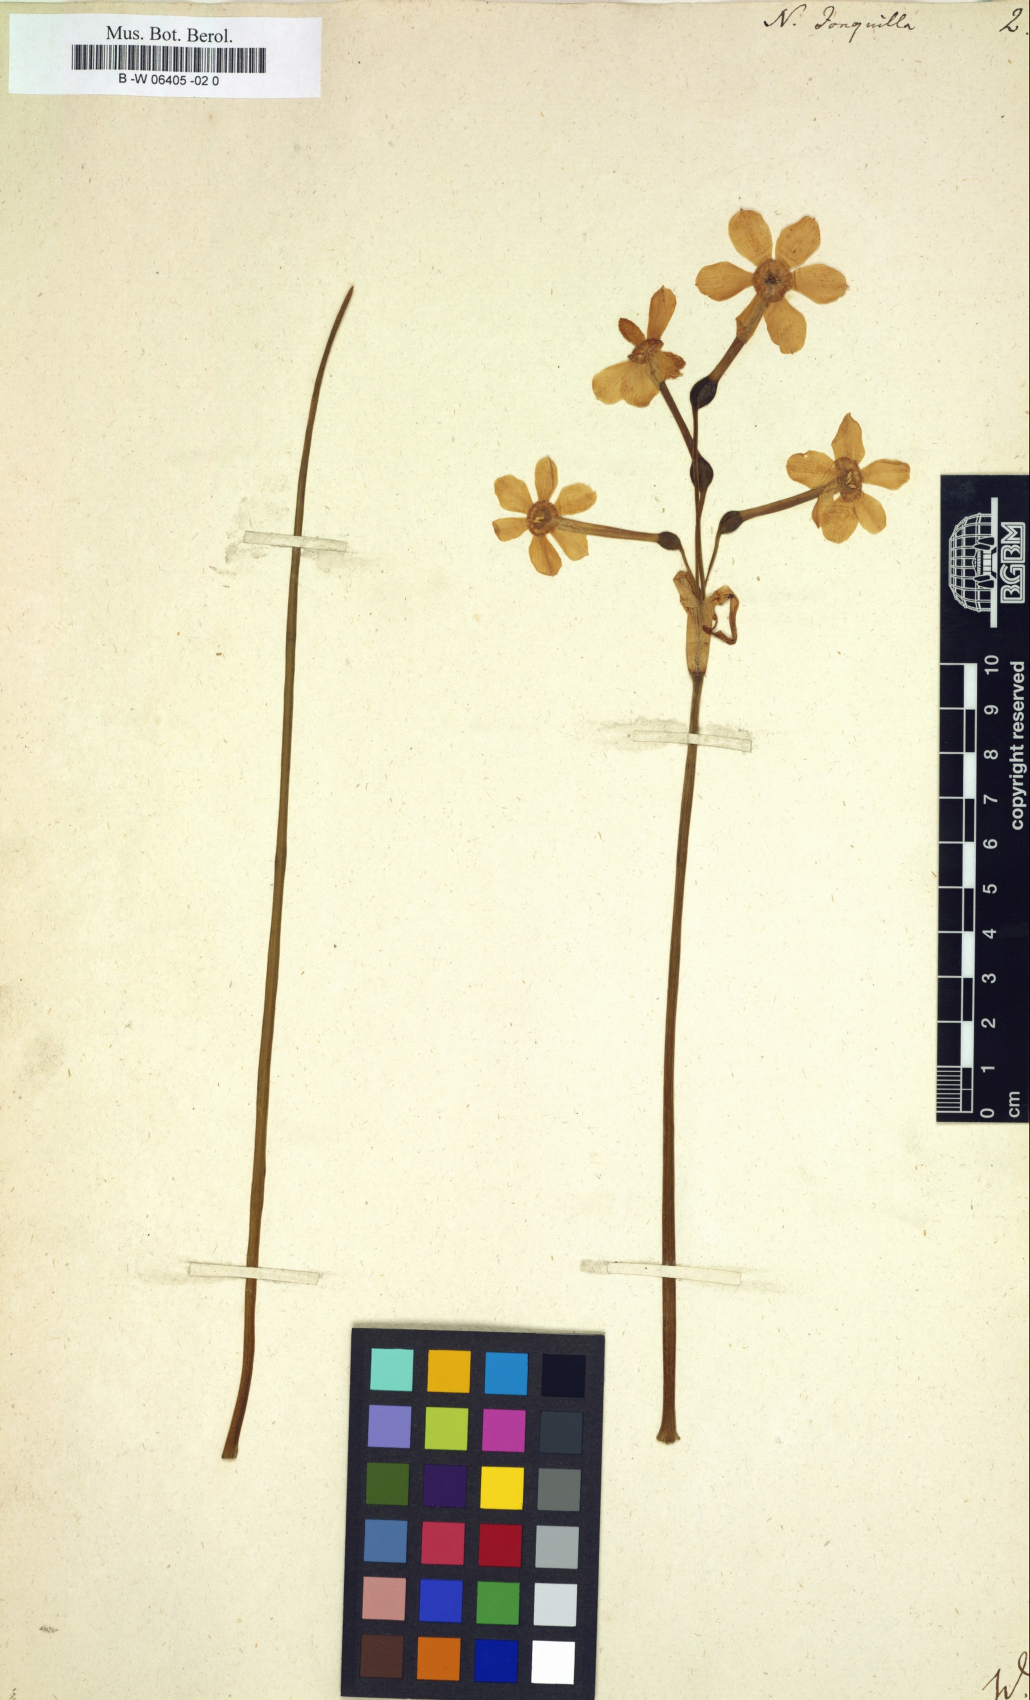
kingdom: Plantae
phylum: Tracheophyta
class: Liliopsida
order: Asparagales
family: Amaryllidaceae
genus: Narcissus
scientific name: Narcissus
